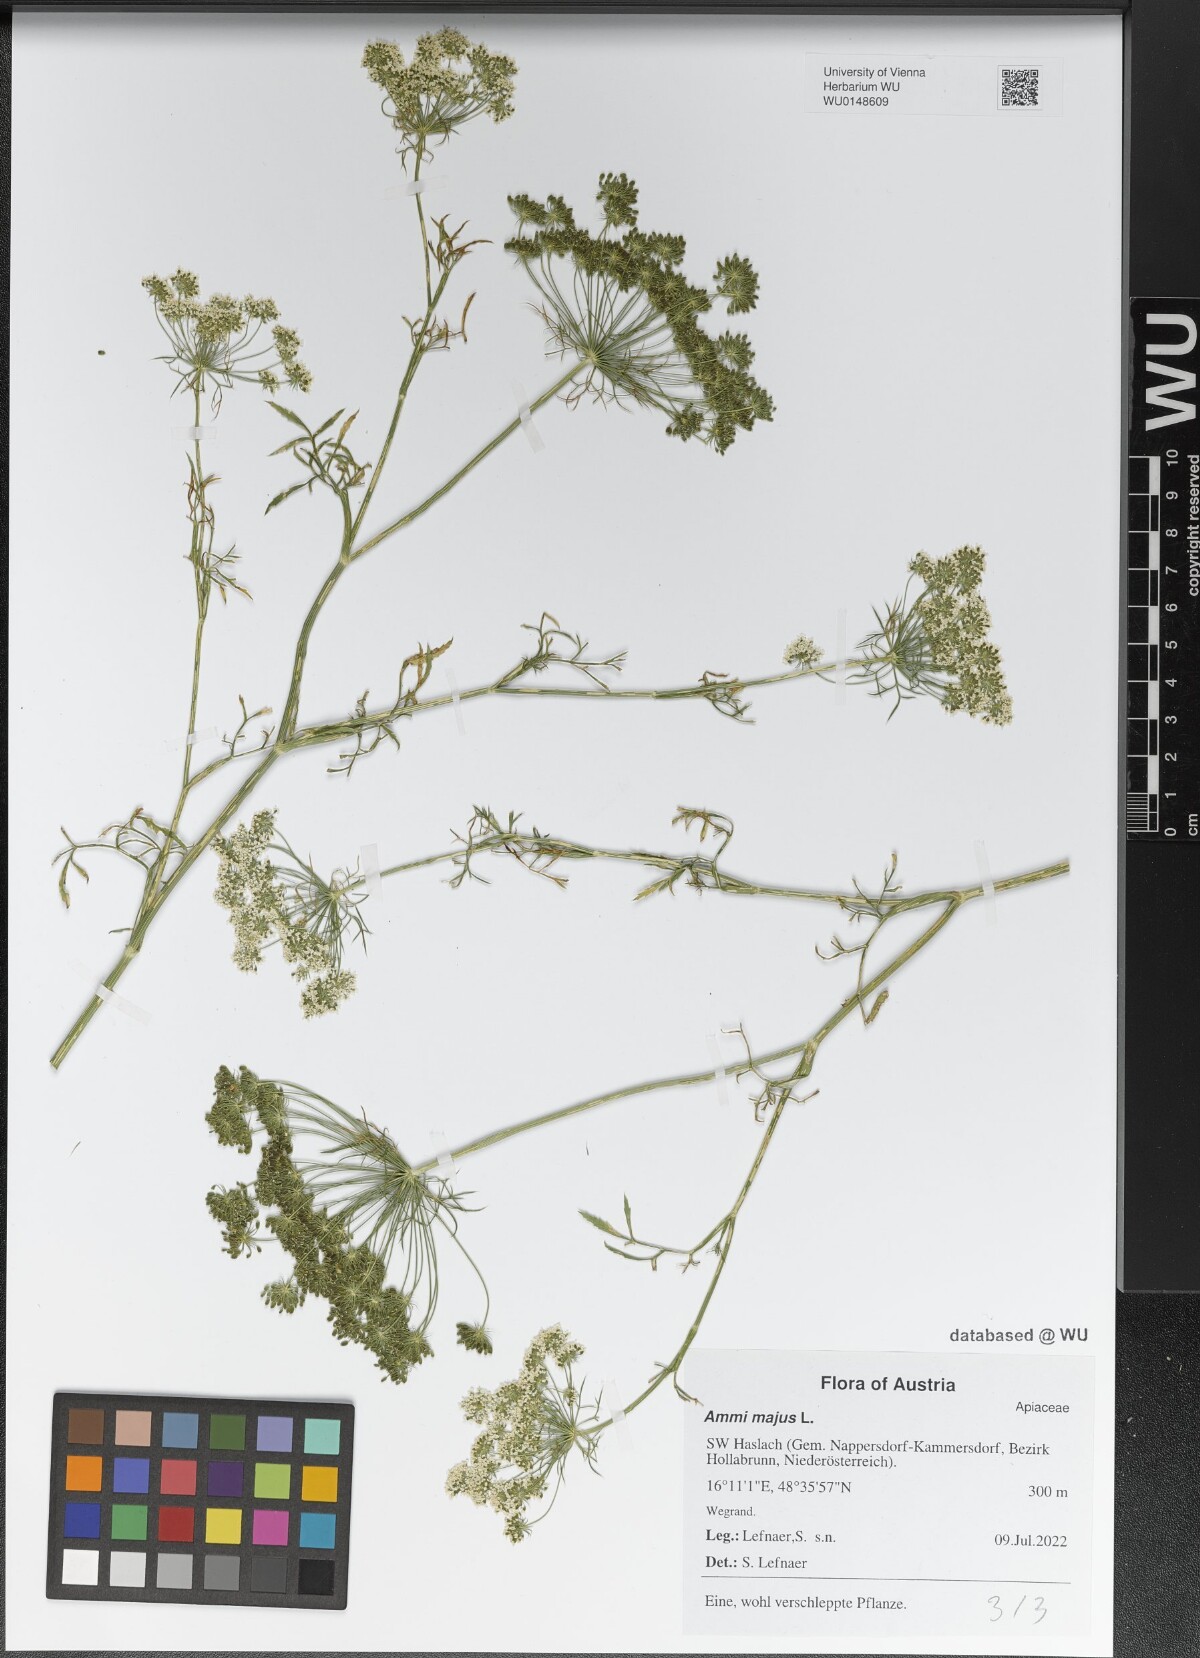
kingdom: Plantae
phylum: Tracheophyta
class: Magnoliopsida
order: Apiales
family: Apiaceae
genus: Ammi
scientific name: Ammi majus
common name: Bullwort
